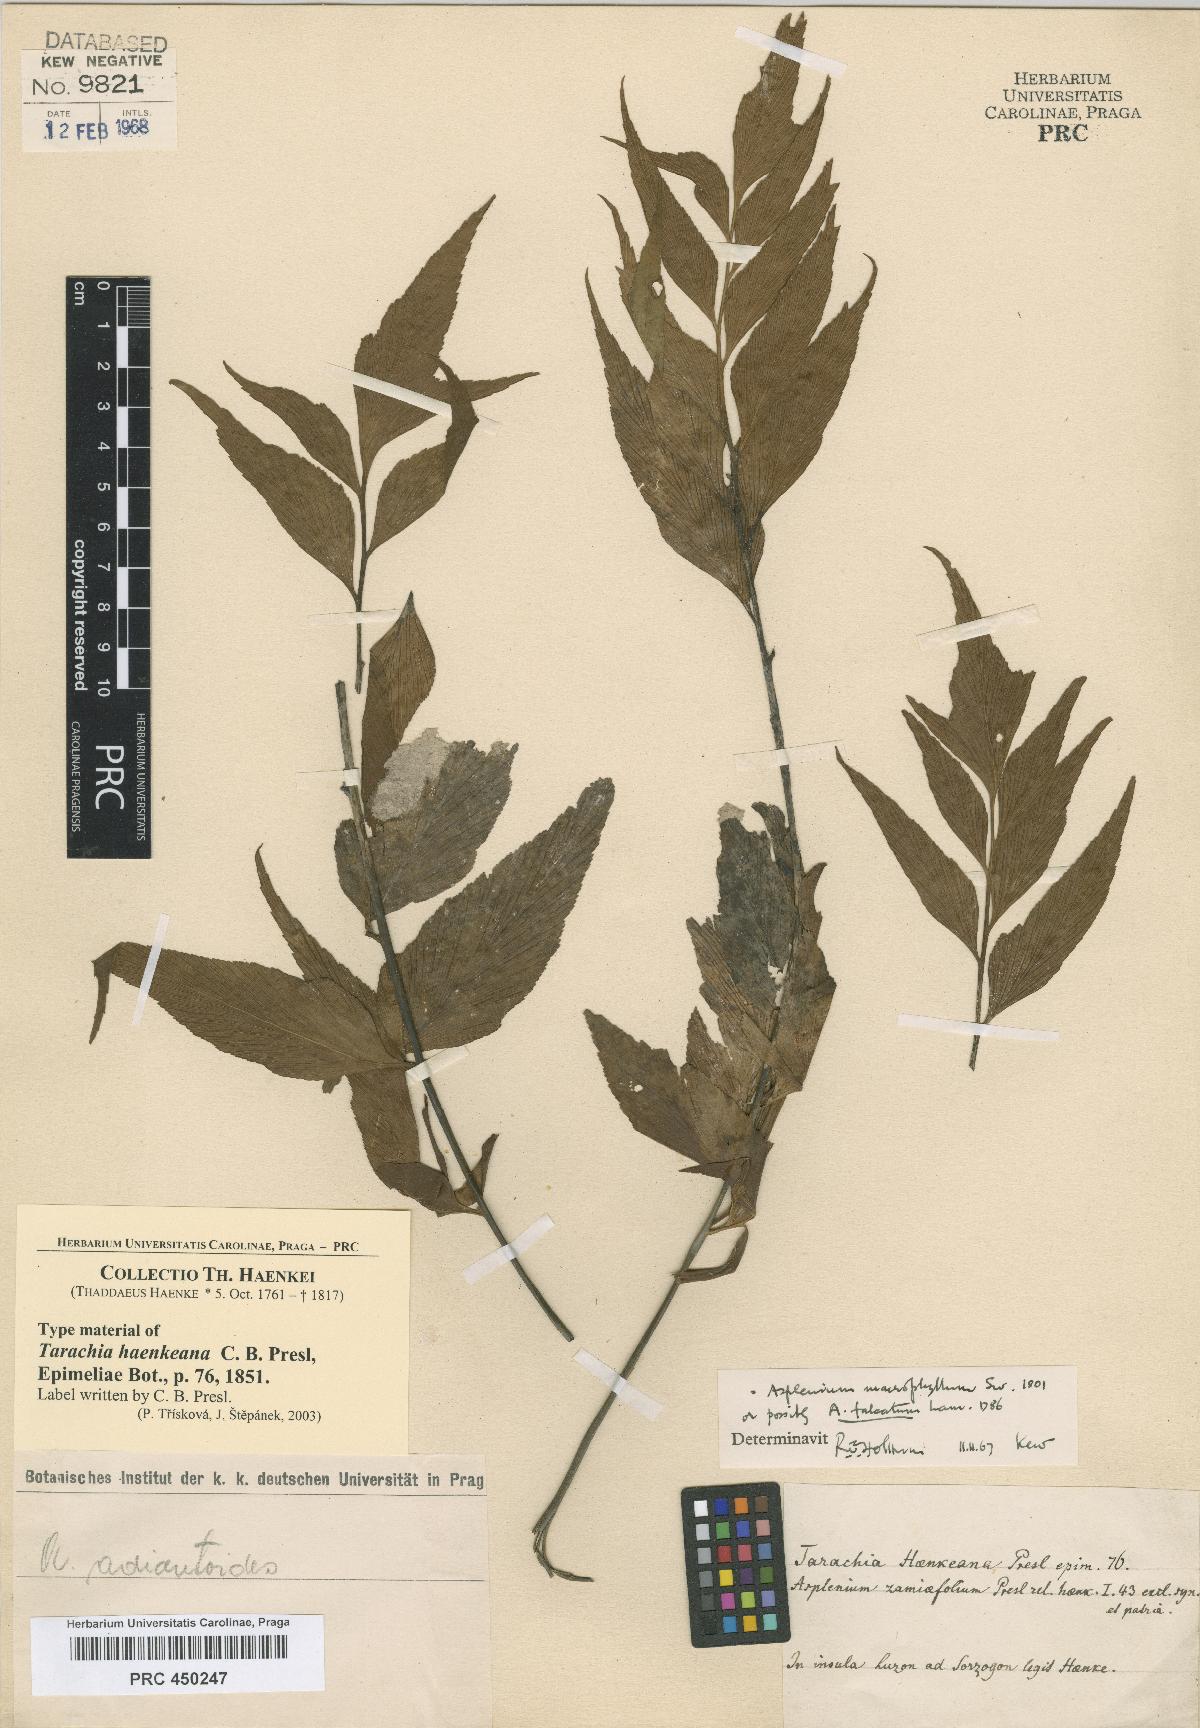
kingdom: Plantae
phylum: Tracheophyta
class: Polypodiopsida
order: Polypodiales
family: Aspleniaceae
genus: Asplenium
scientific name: Asplenium simile
